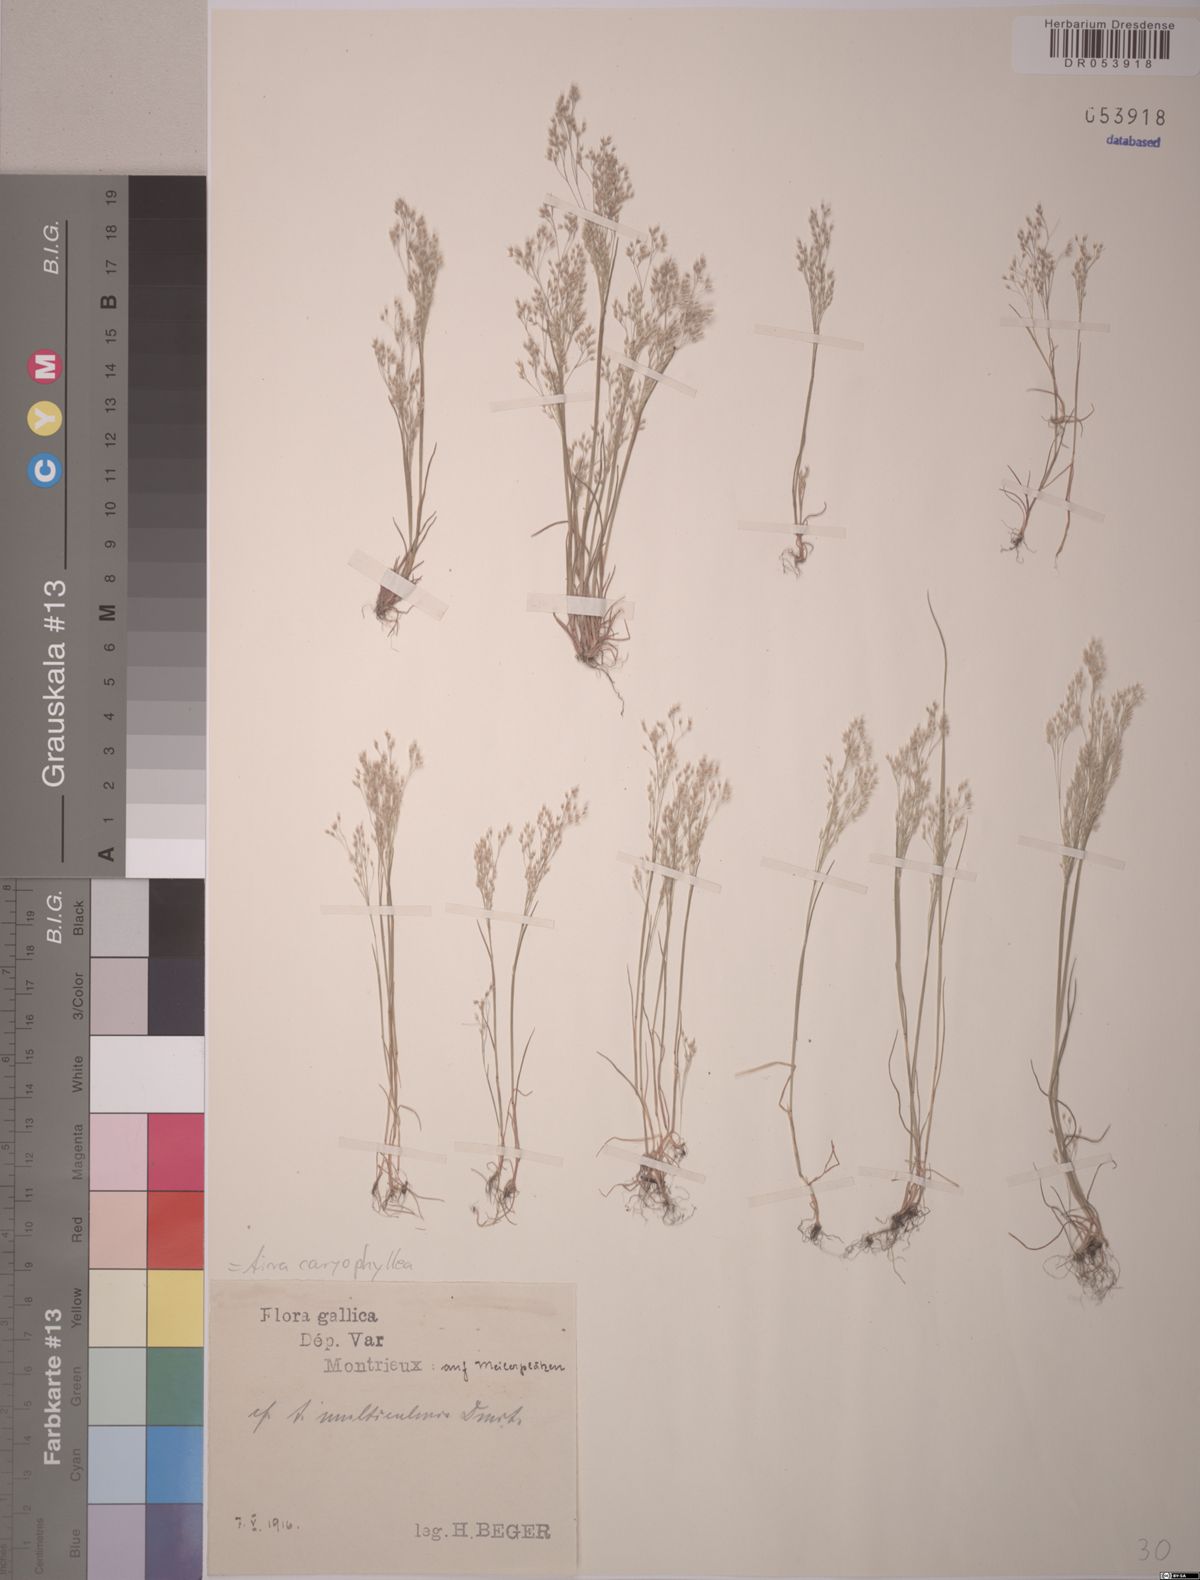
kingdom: Plantae
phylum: Tracheophyta
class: Liliopsida
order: Poales
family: Poaceae
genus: Aira
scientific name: Aira caryophyllea
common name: Silver hairgrass
